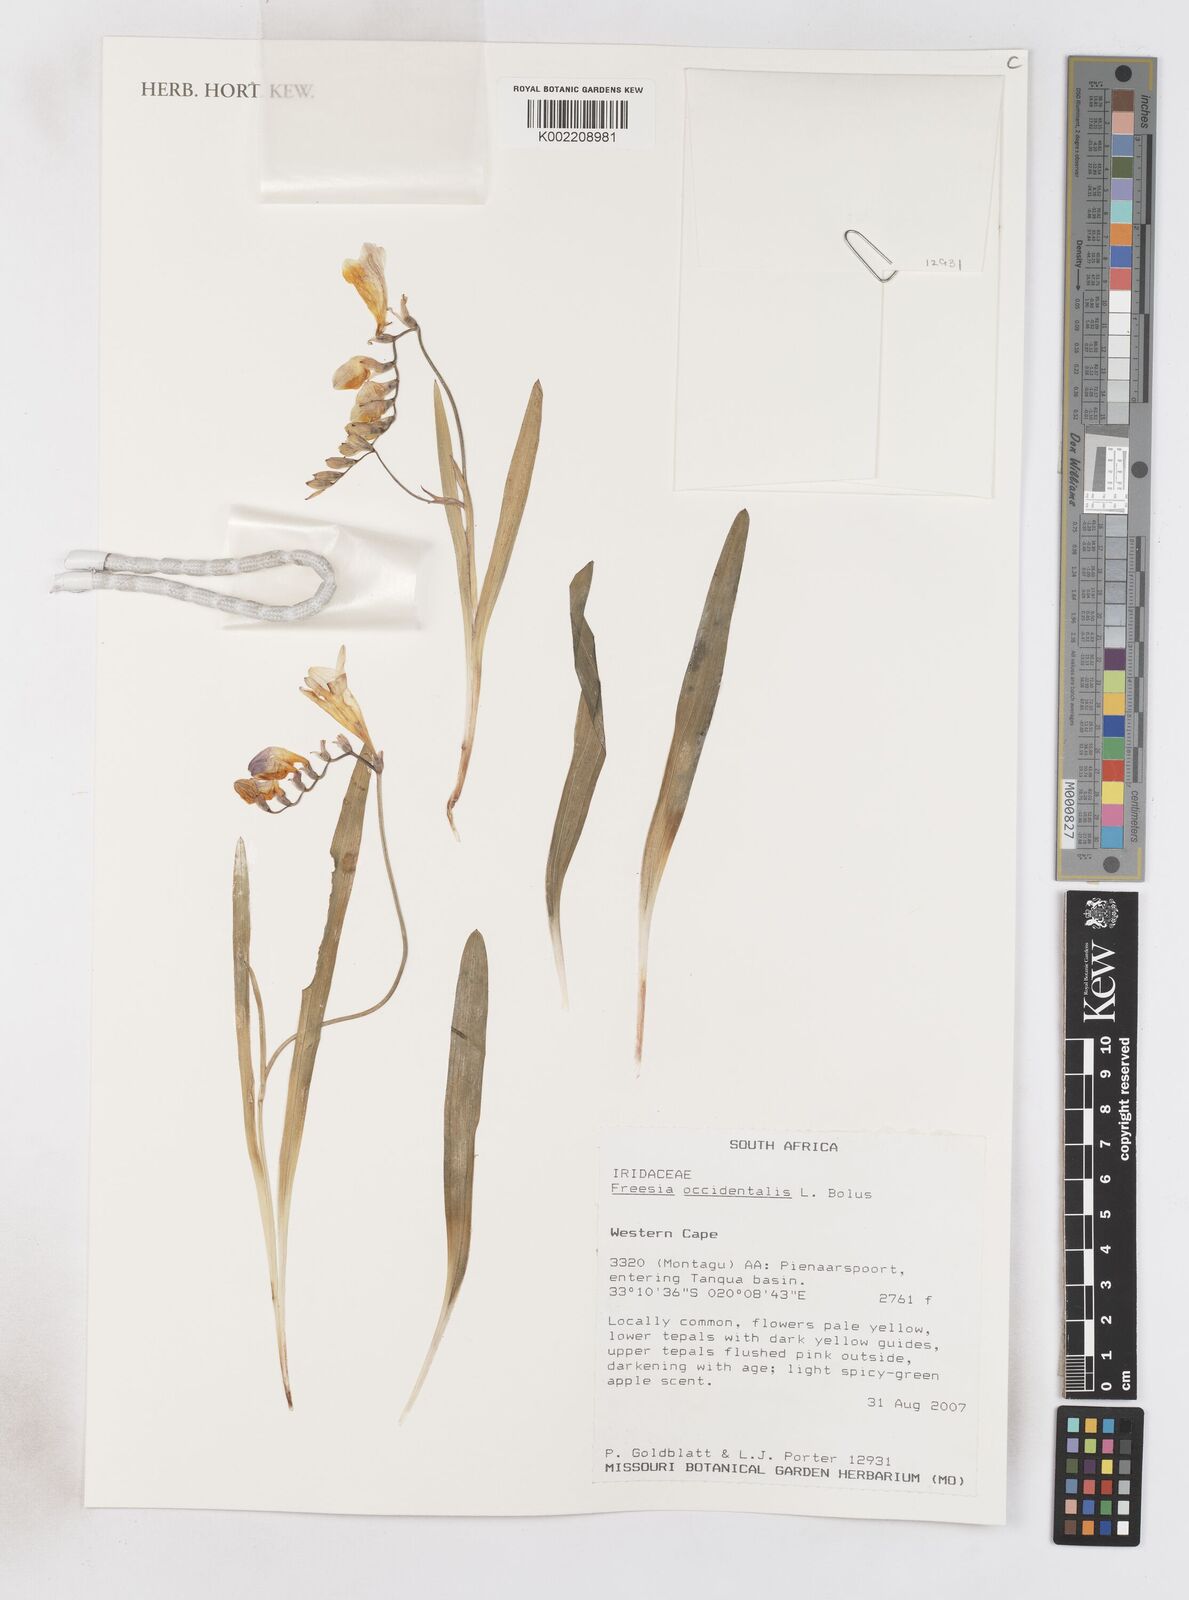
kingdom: Plantae
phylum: Tracheophyta
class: Liliopsida
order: Asparagales
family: Iridaceae
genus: Freesia
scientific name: Freesia occidentalis
